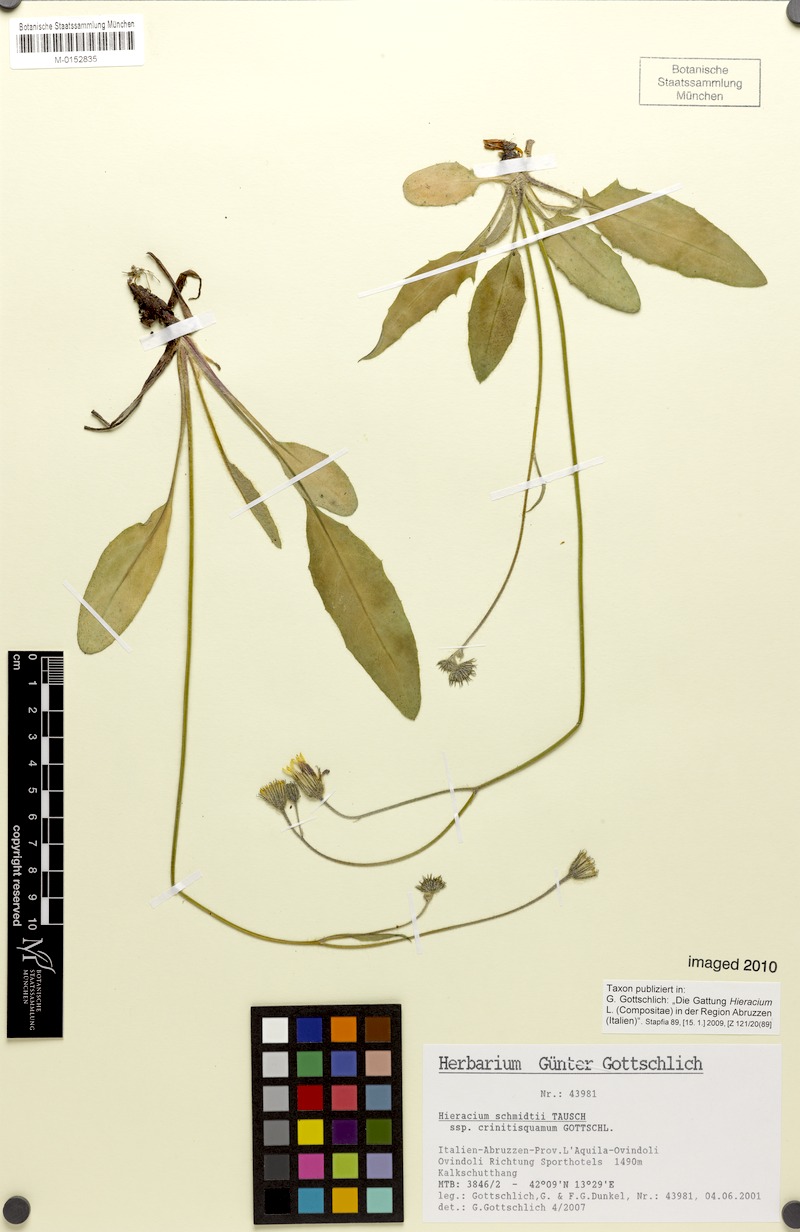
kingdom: Plantae
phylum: Tracheophyta
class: Magnoliopsida
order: Asterales
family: Asteraceae
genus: Hieracium
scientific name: Hieracium schmidtii
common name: Schmidt's hawkweed
